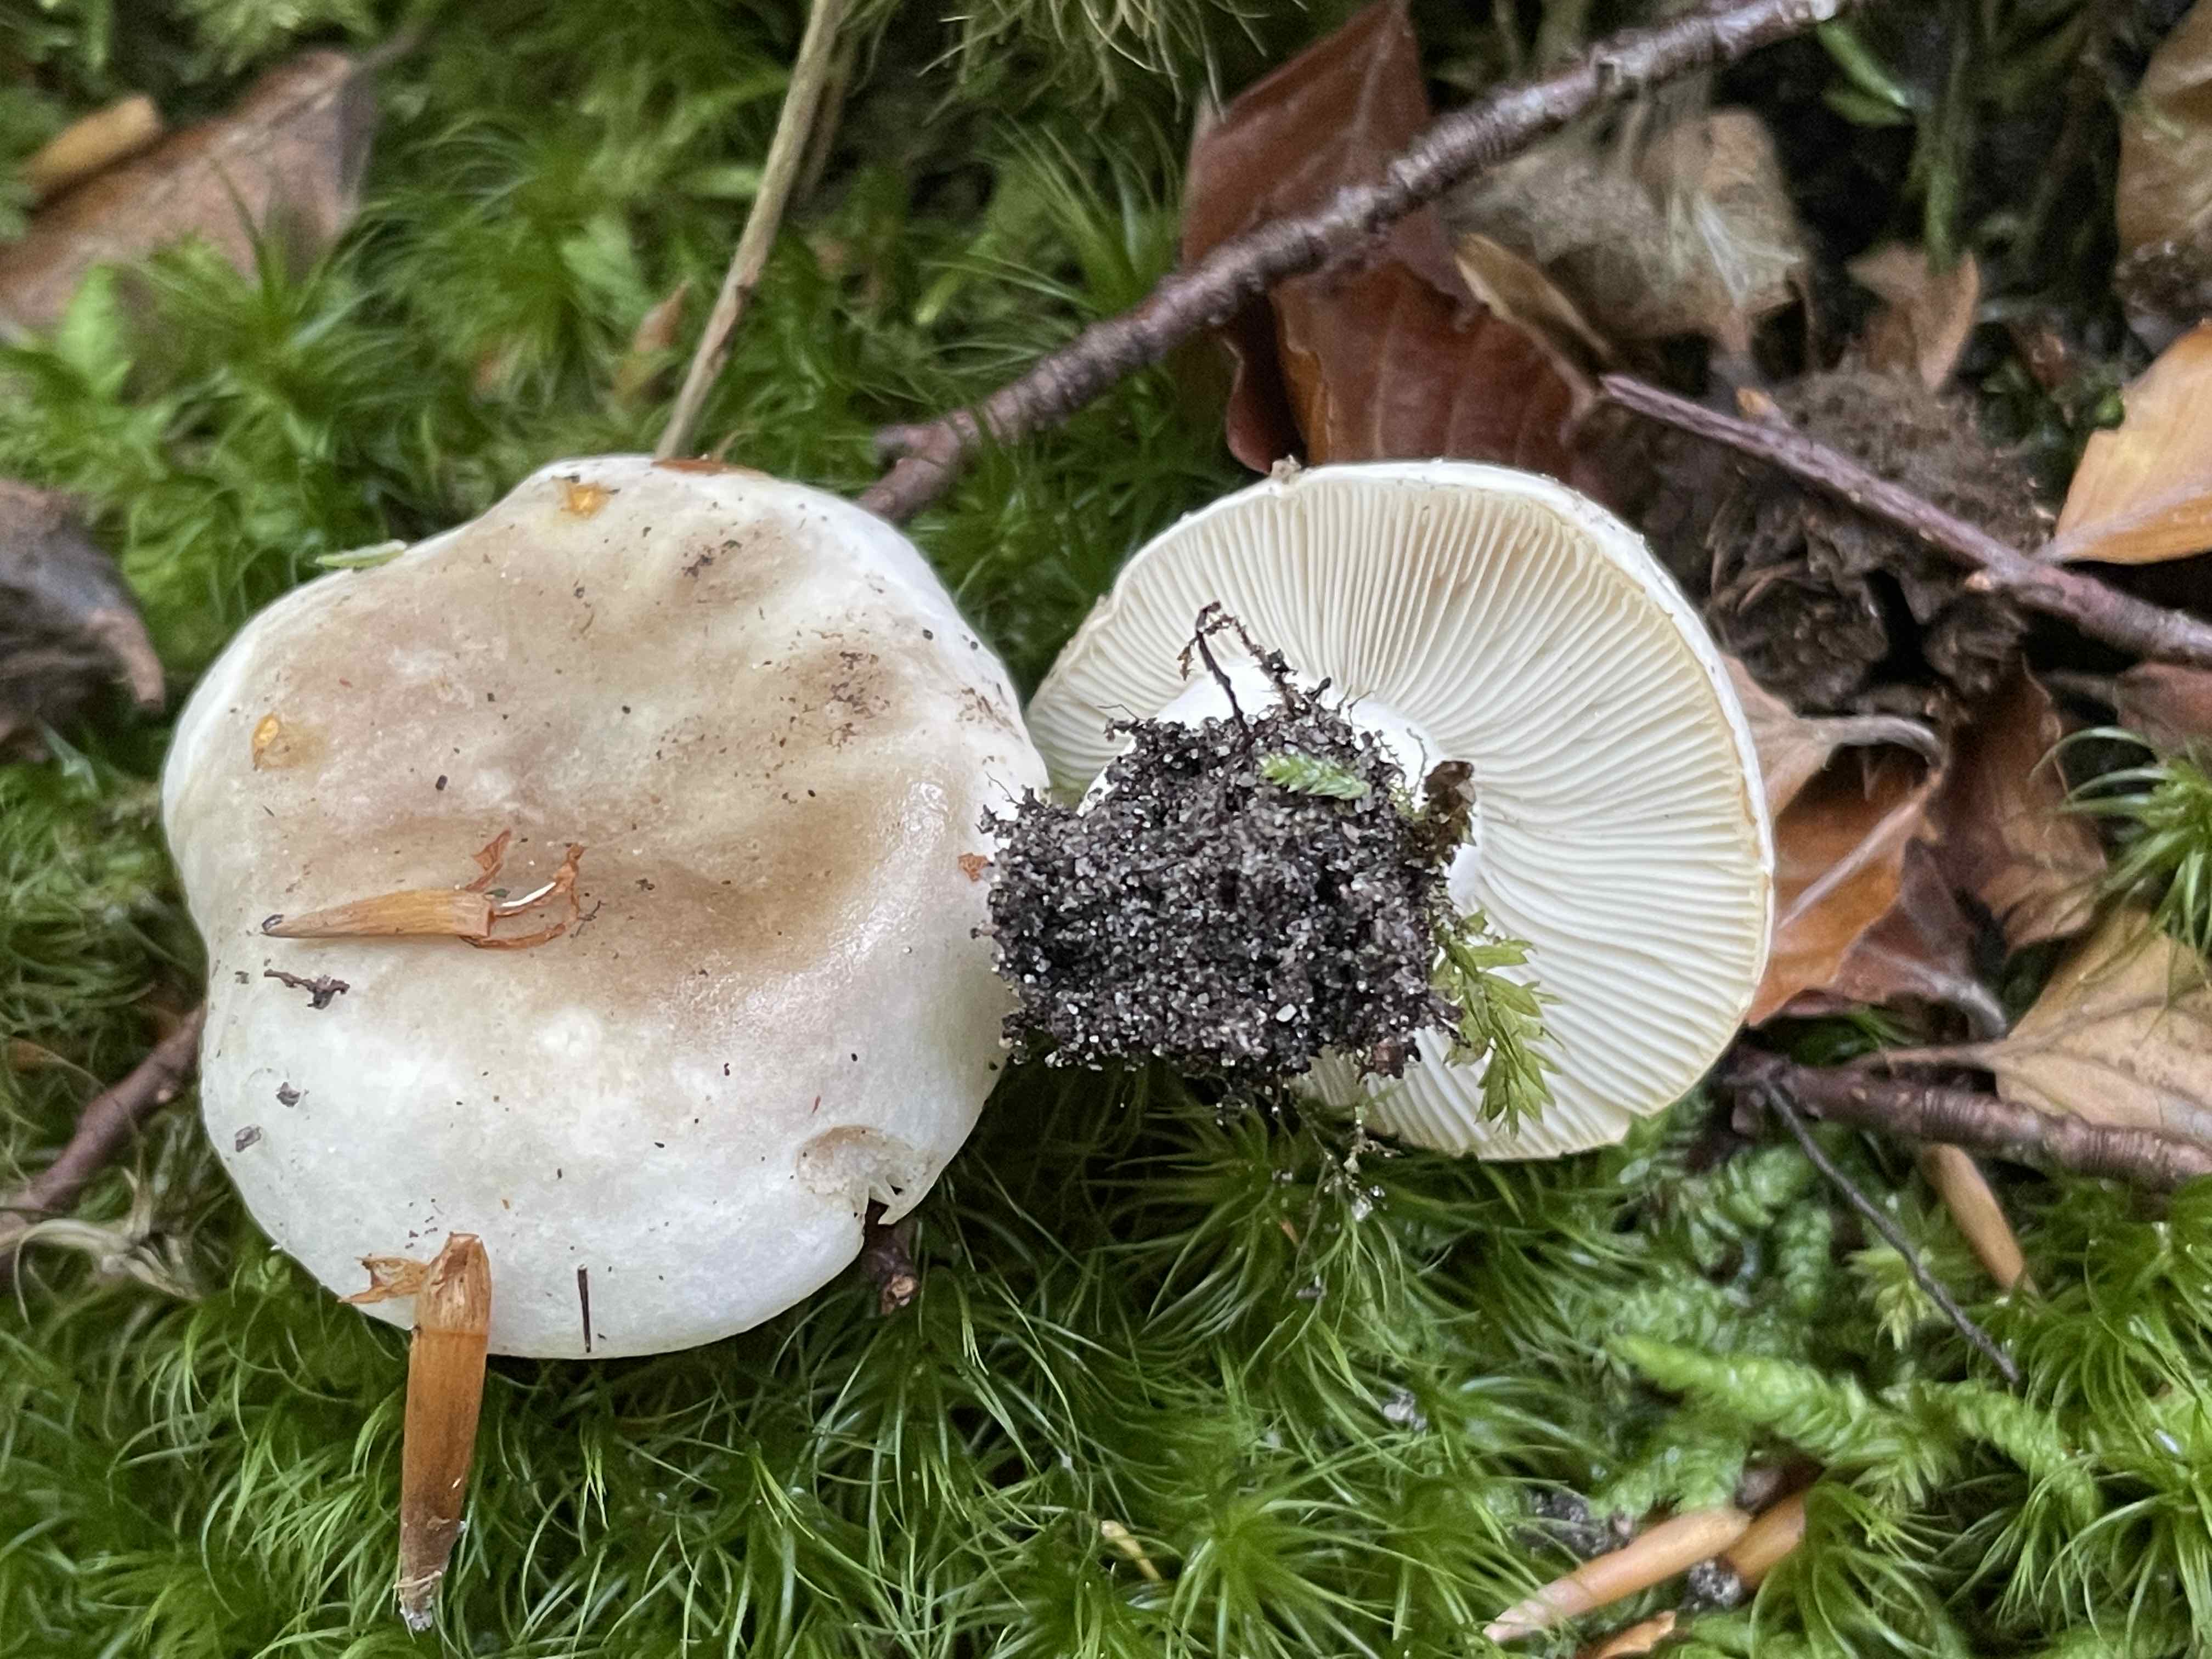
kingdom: Fungi
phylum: Basidiomycota
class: Agaricomycetes
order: Russulales
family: Russulaceae
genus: Russula
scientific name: Russula densifolia
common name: tætbladet skørhat
